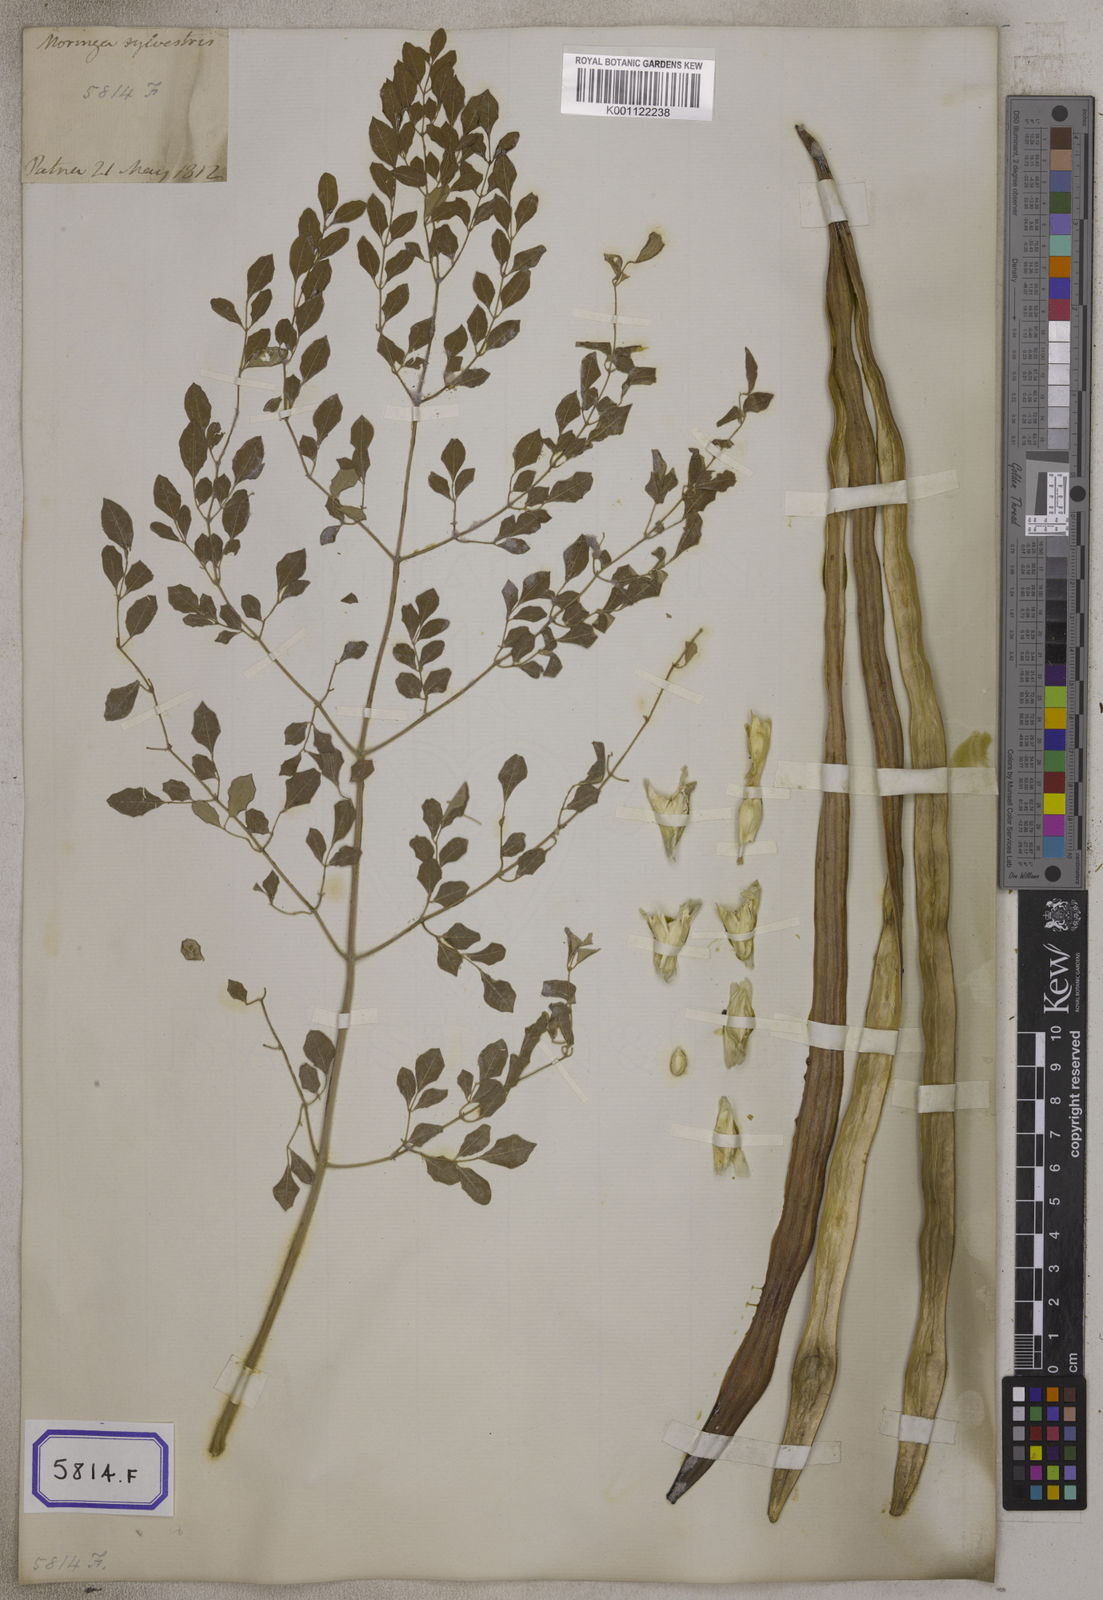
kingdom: Plantae
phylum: Tracheophyta
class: Magnoliopsida
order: Brassicales
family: Moringaceae
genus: Moringa
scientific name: Moringa oleifera
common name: Horseradish-tree
